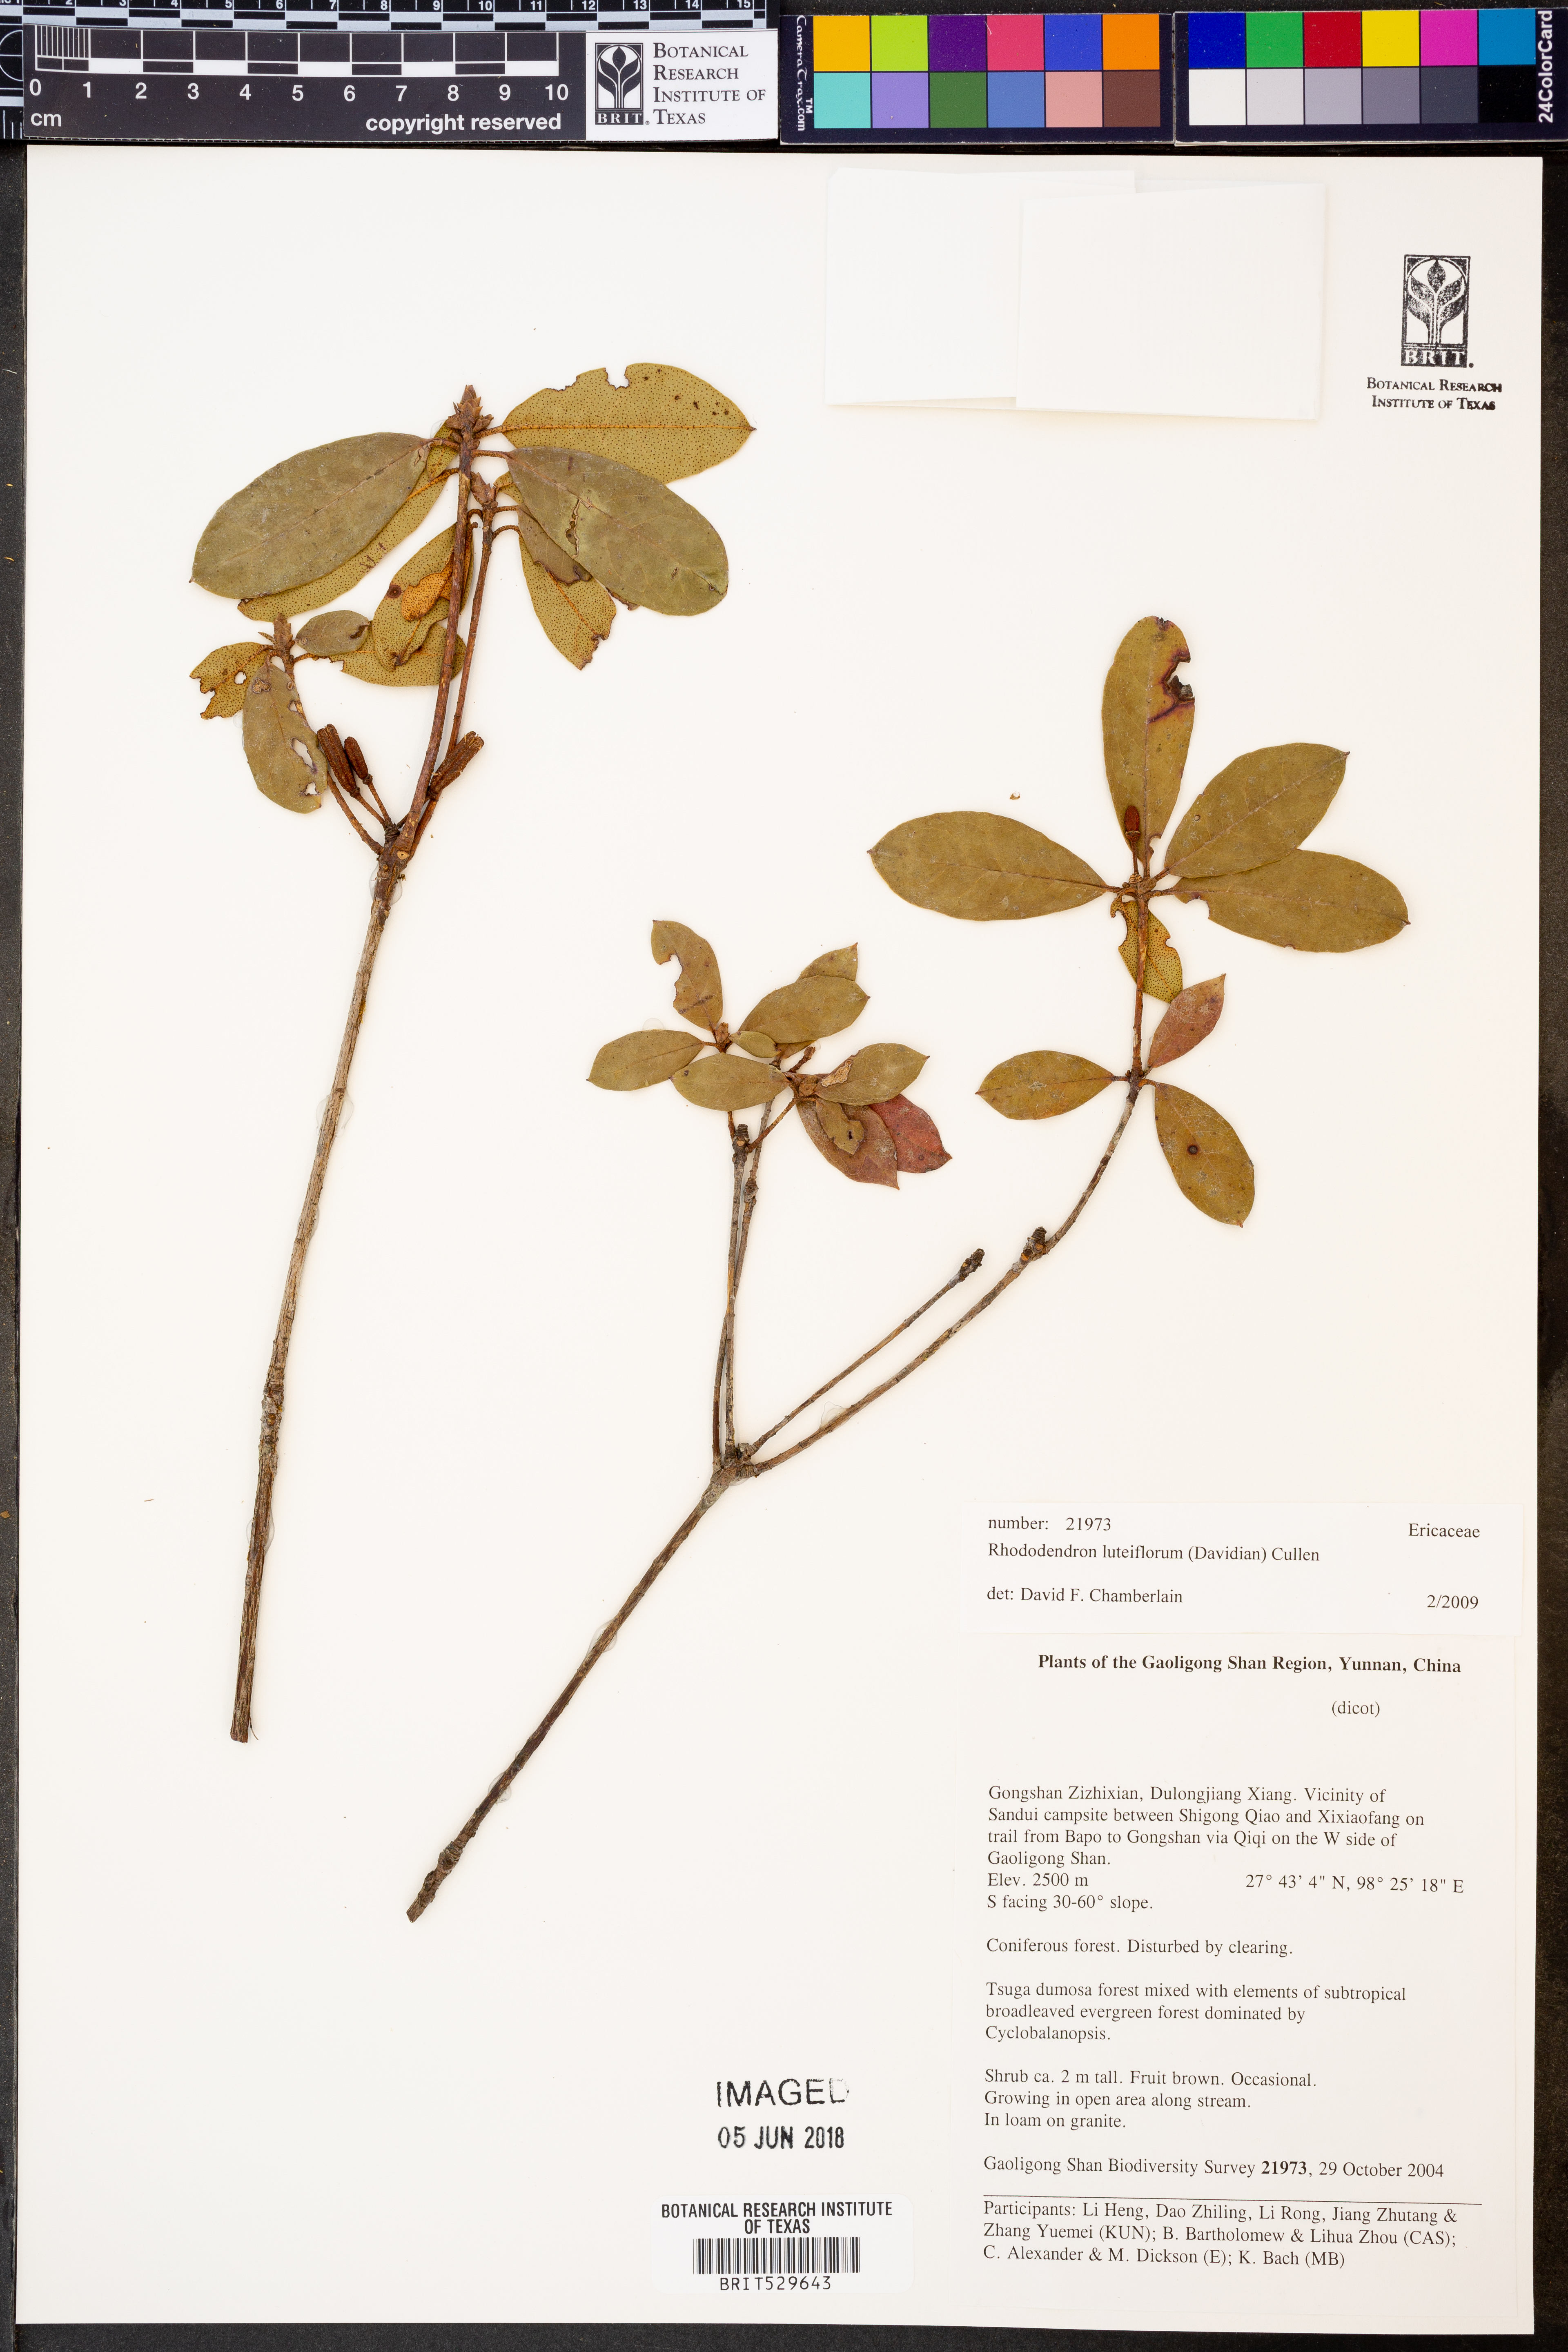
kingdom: Plantae
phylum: Tracheophyta
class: Magnoliopsida
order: Ericales
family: Ericaceae
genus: Rhododendron
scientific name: Rhododendron luteiflorum
